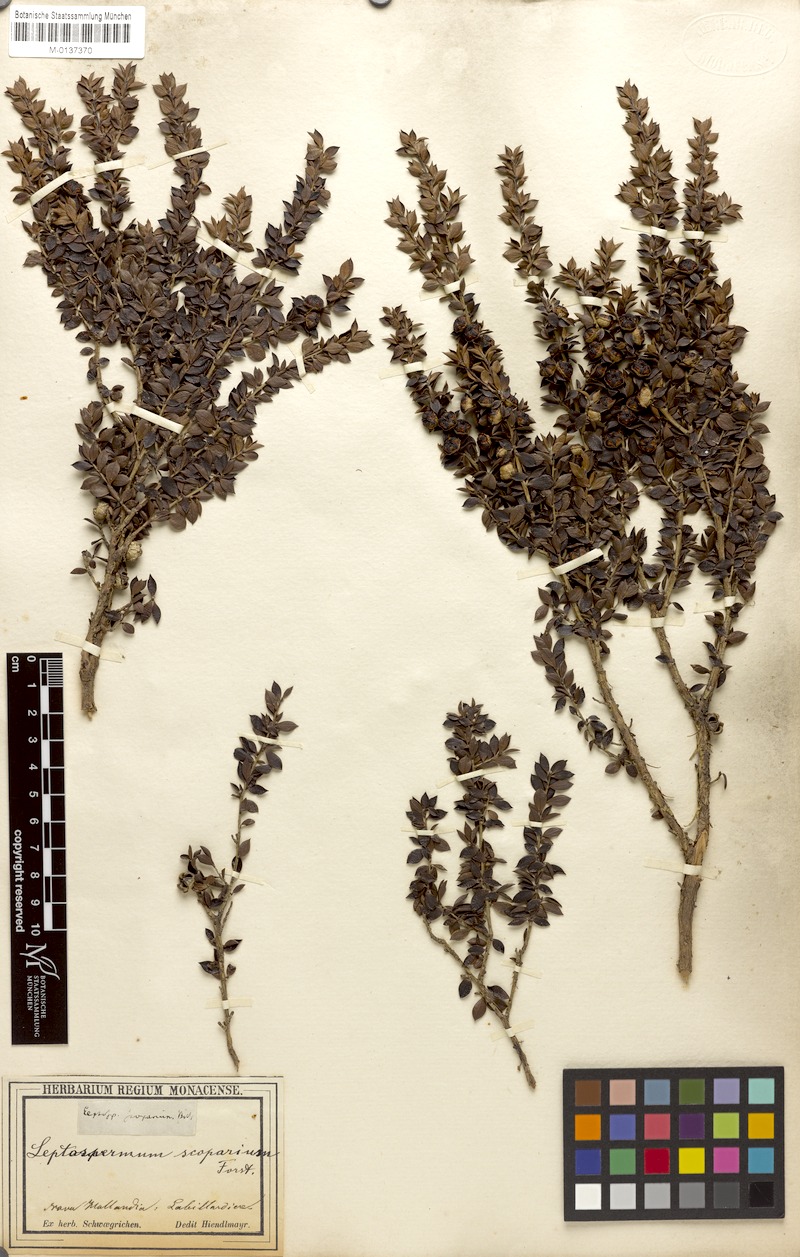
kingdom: Plantae
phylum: Tracheophyta
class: Magnoliopsida
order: Myrtales
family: Myrtaceae
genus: Leptospermum
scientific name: Leptospermum scoparium
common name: Broom tea-tree
